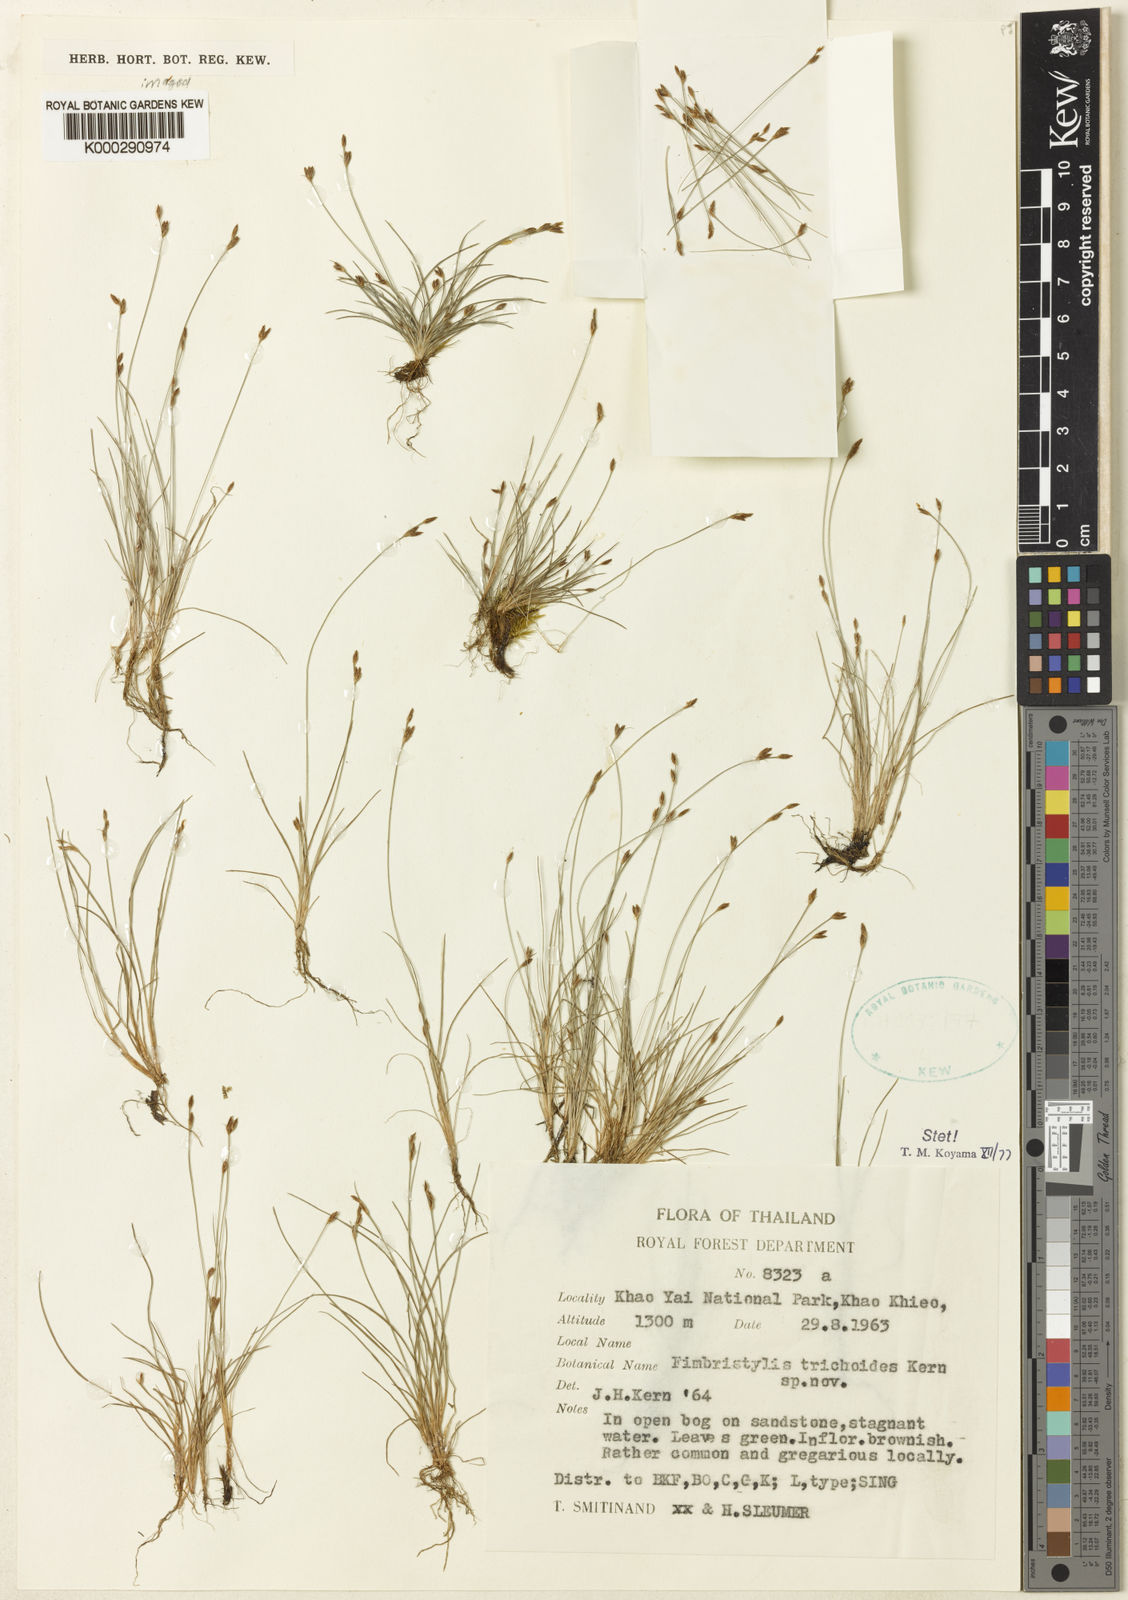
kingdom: Plantae
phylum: Tracheophyta
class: Liliopsida
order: Poales
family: Cyperaceae
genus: Fimbristylis
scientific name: Fimbristylis trichoides
